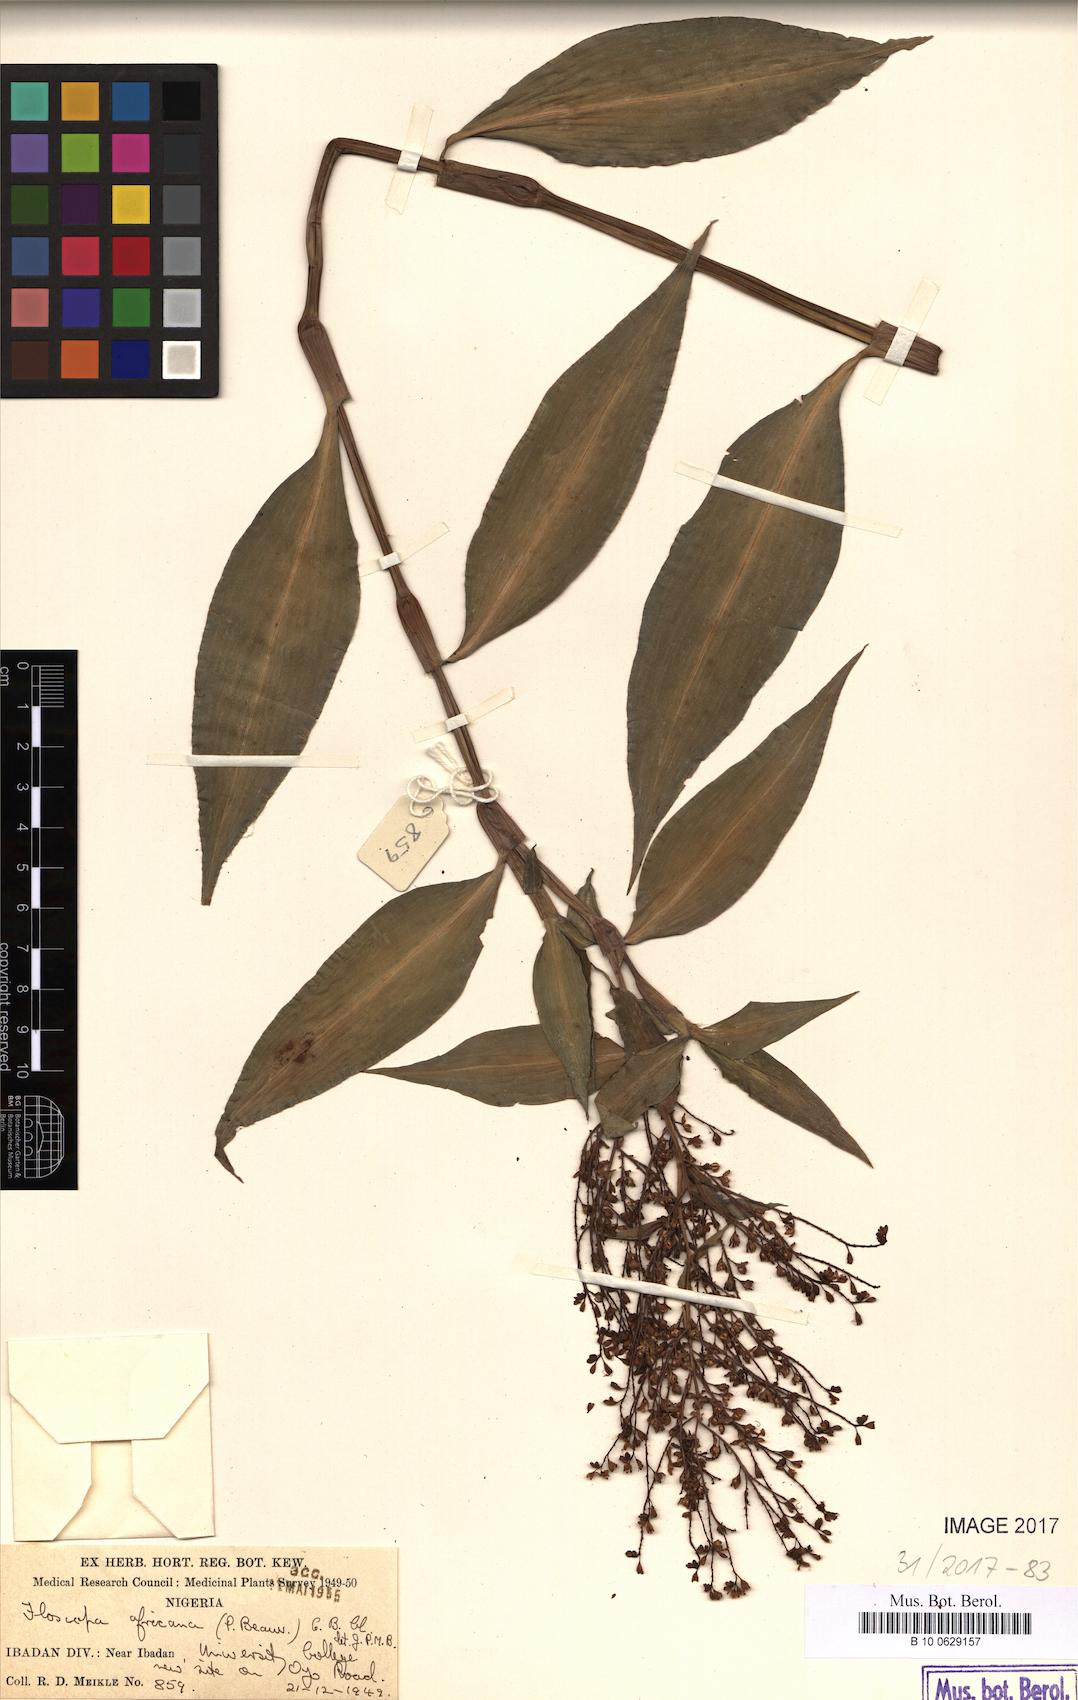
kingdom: Plantae
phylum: Tracheophyta
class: Liliopsida
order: Commelinales
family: Commelinaceae
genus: Floscopa
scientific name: Floscopa africana
